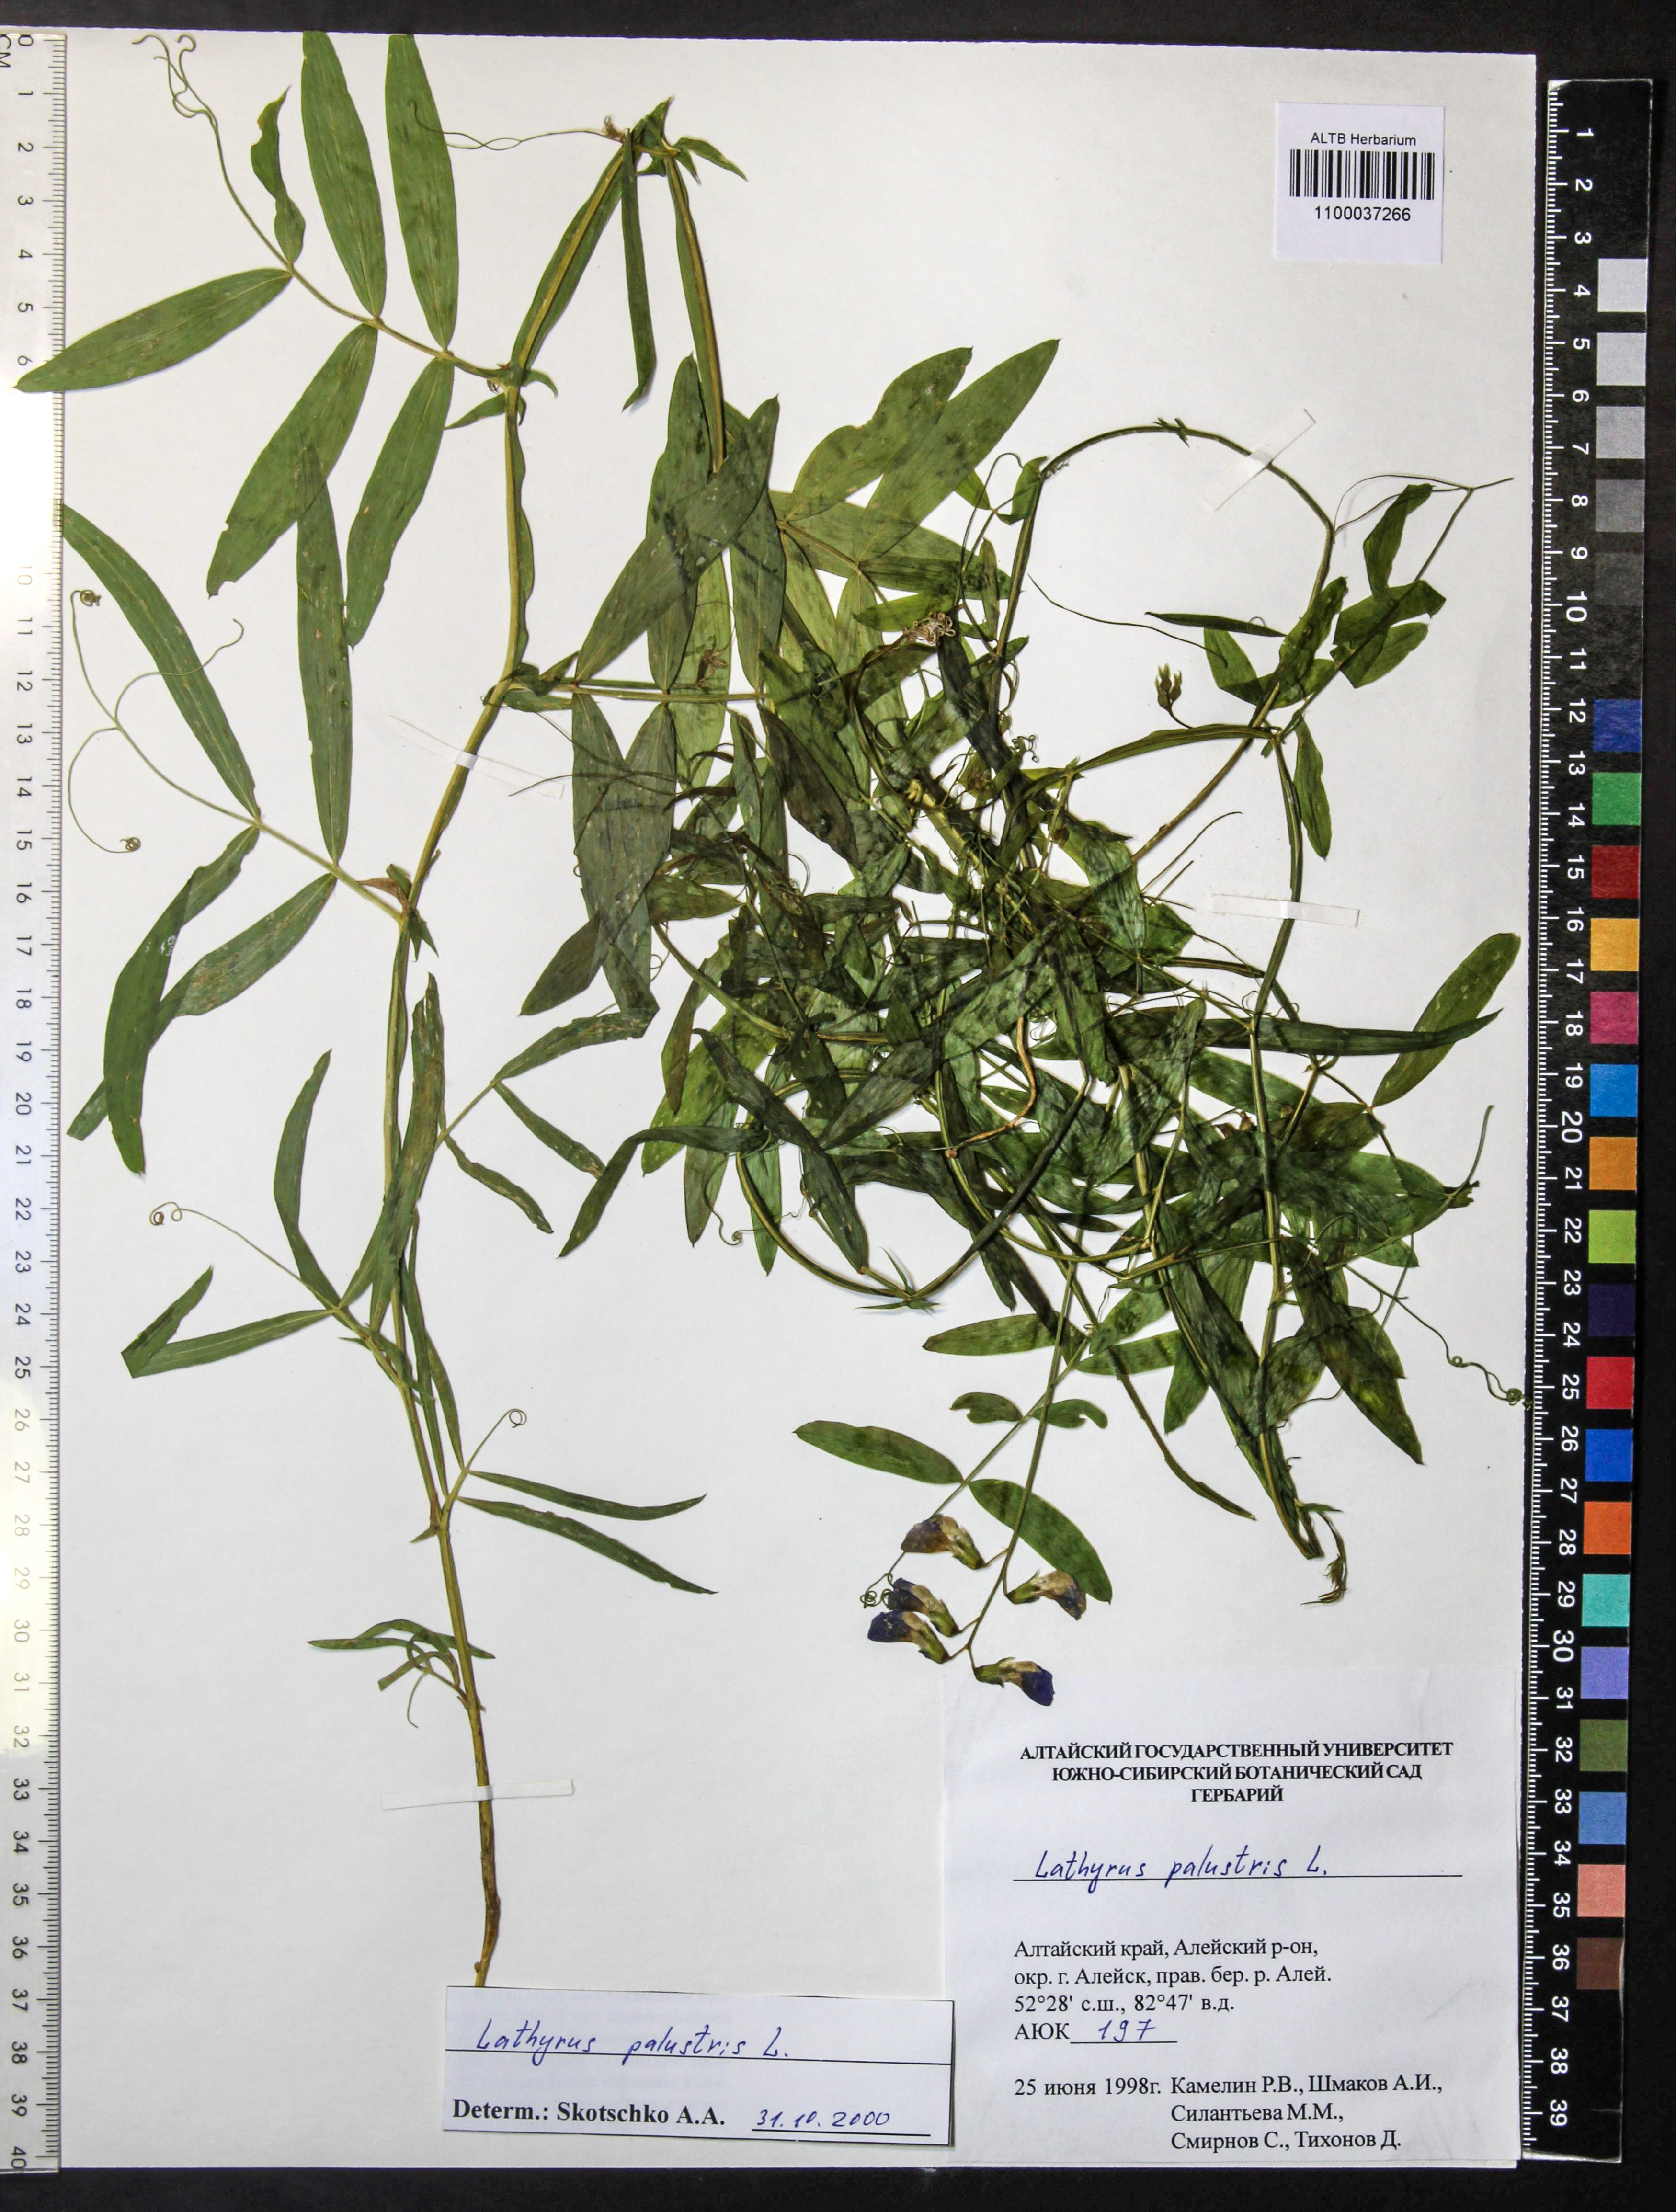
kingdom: Plantae
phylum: Tracheophyta
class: Magnoliopsida
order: Fabales
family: Fabaceae
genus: Lathyrus
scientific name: Lathyrus palustris
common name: Marsh pea
